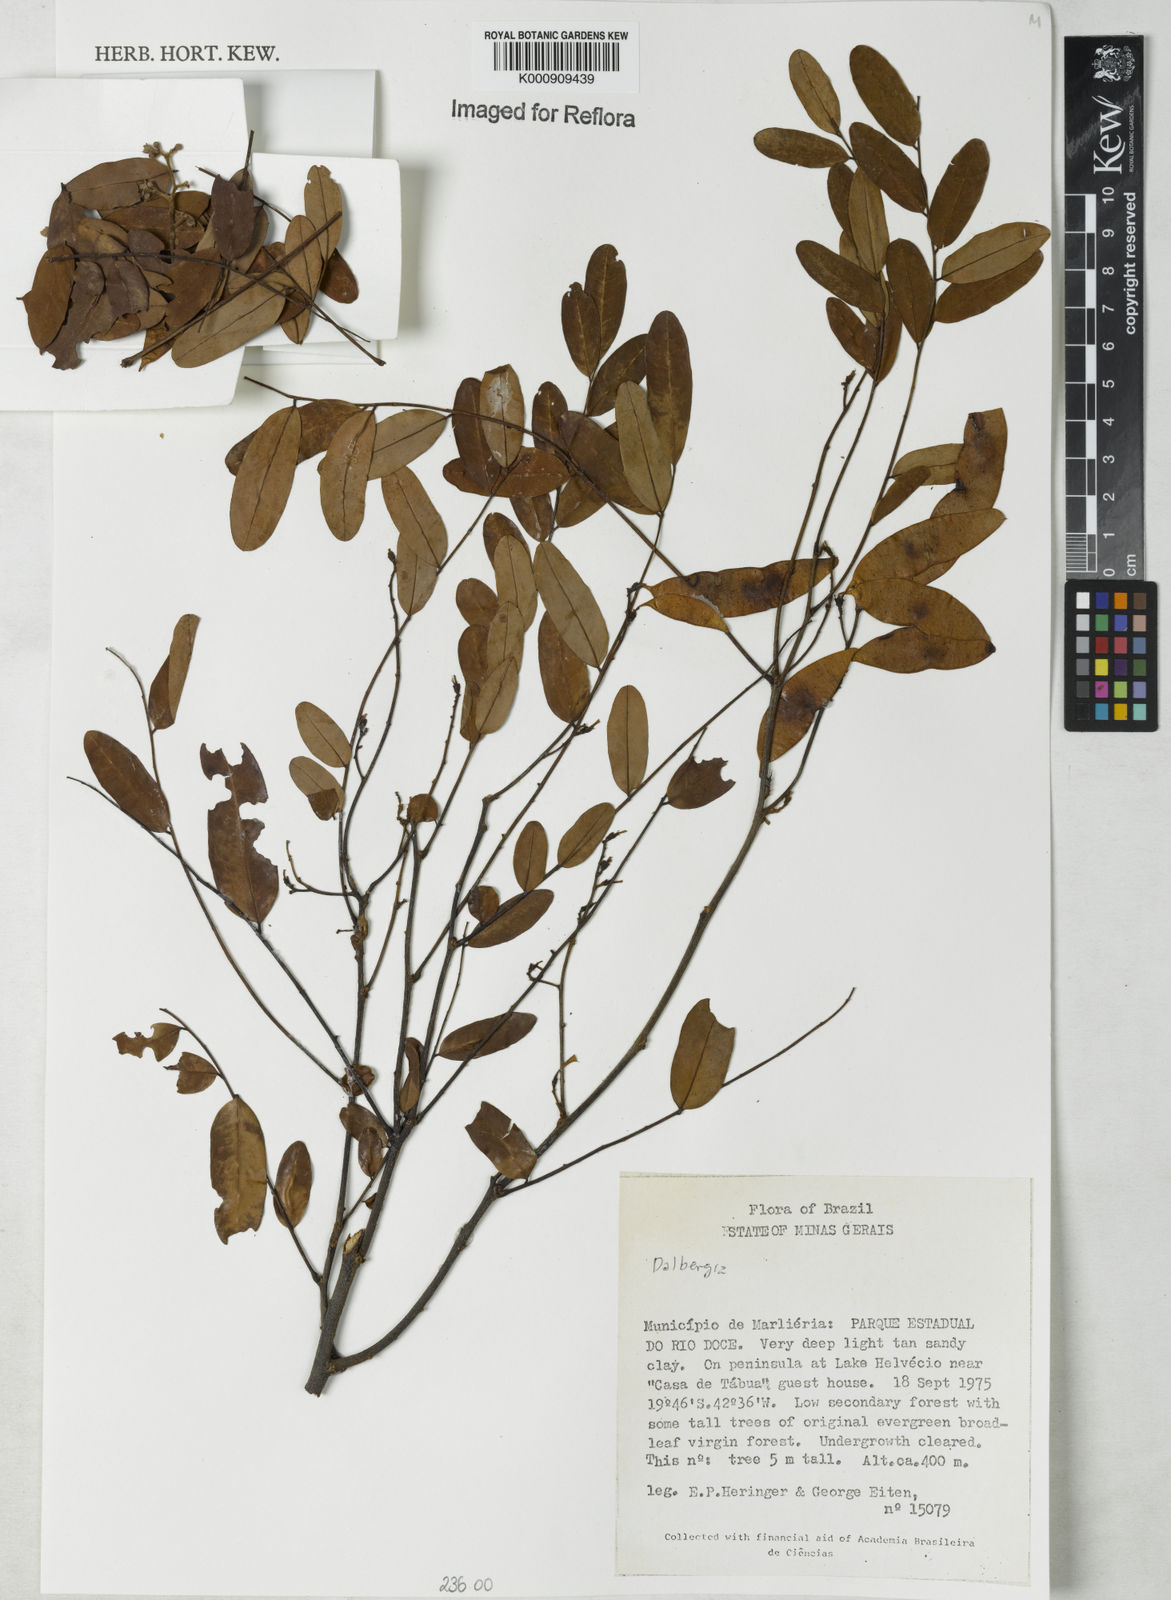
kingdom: Plantae
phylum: Tracheophyta
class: Magnoliopsida
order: Fabales
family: Fabaceae
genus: Dalbergia
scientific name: Dalbergia
